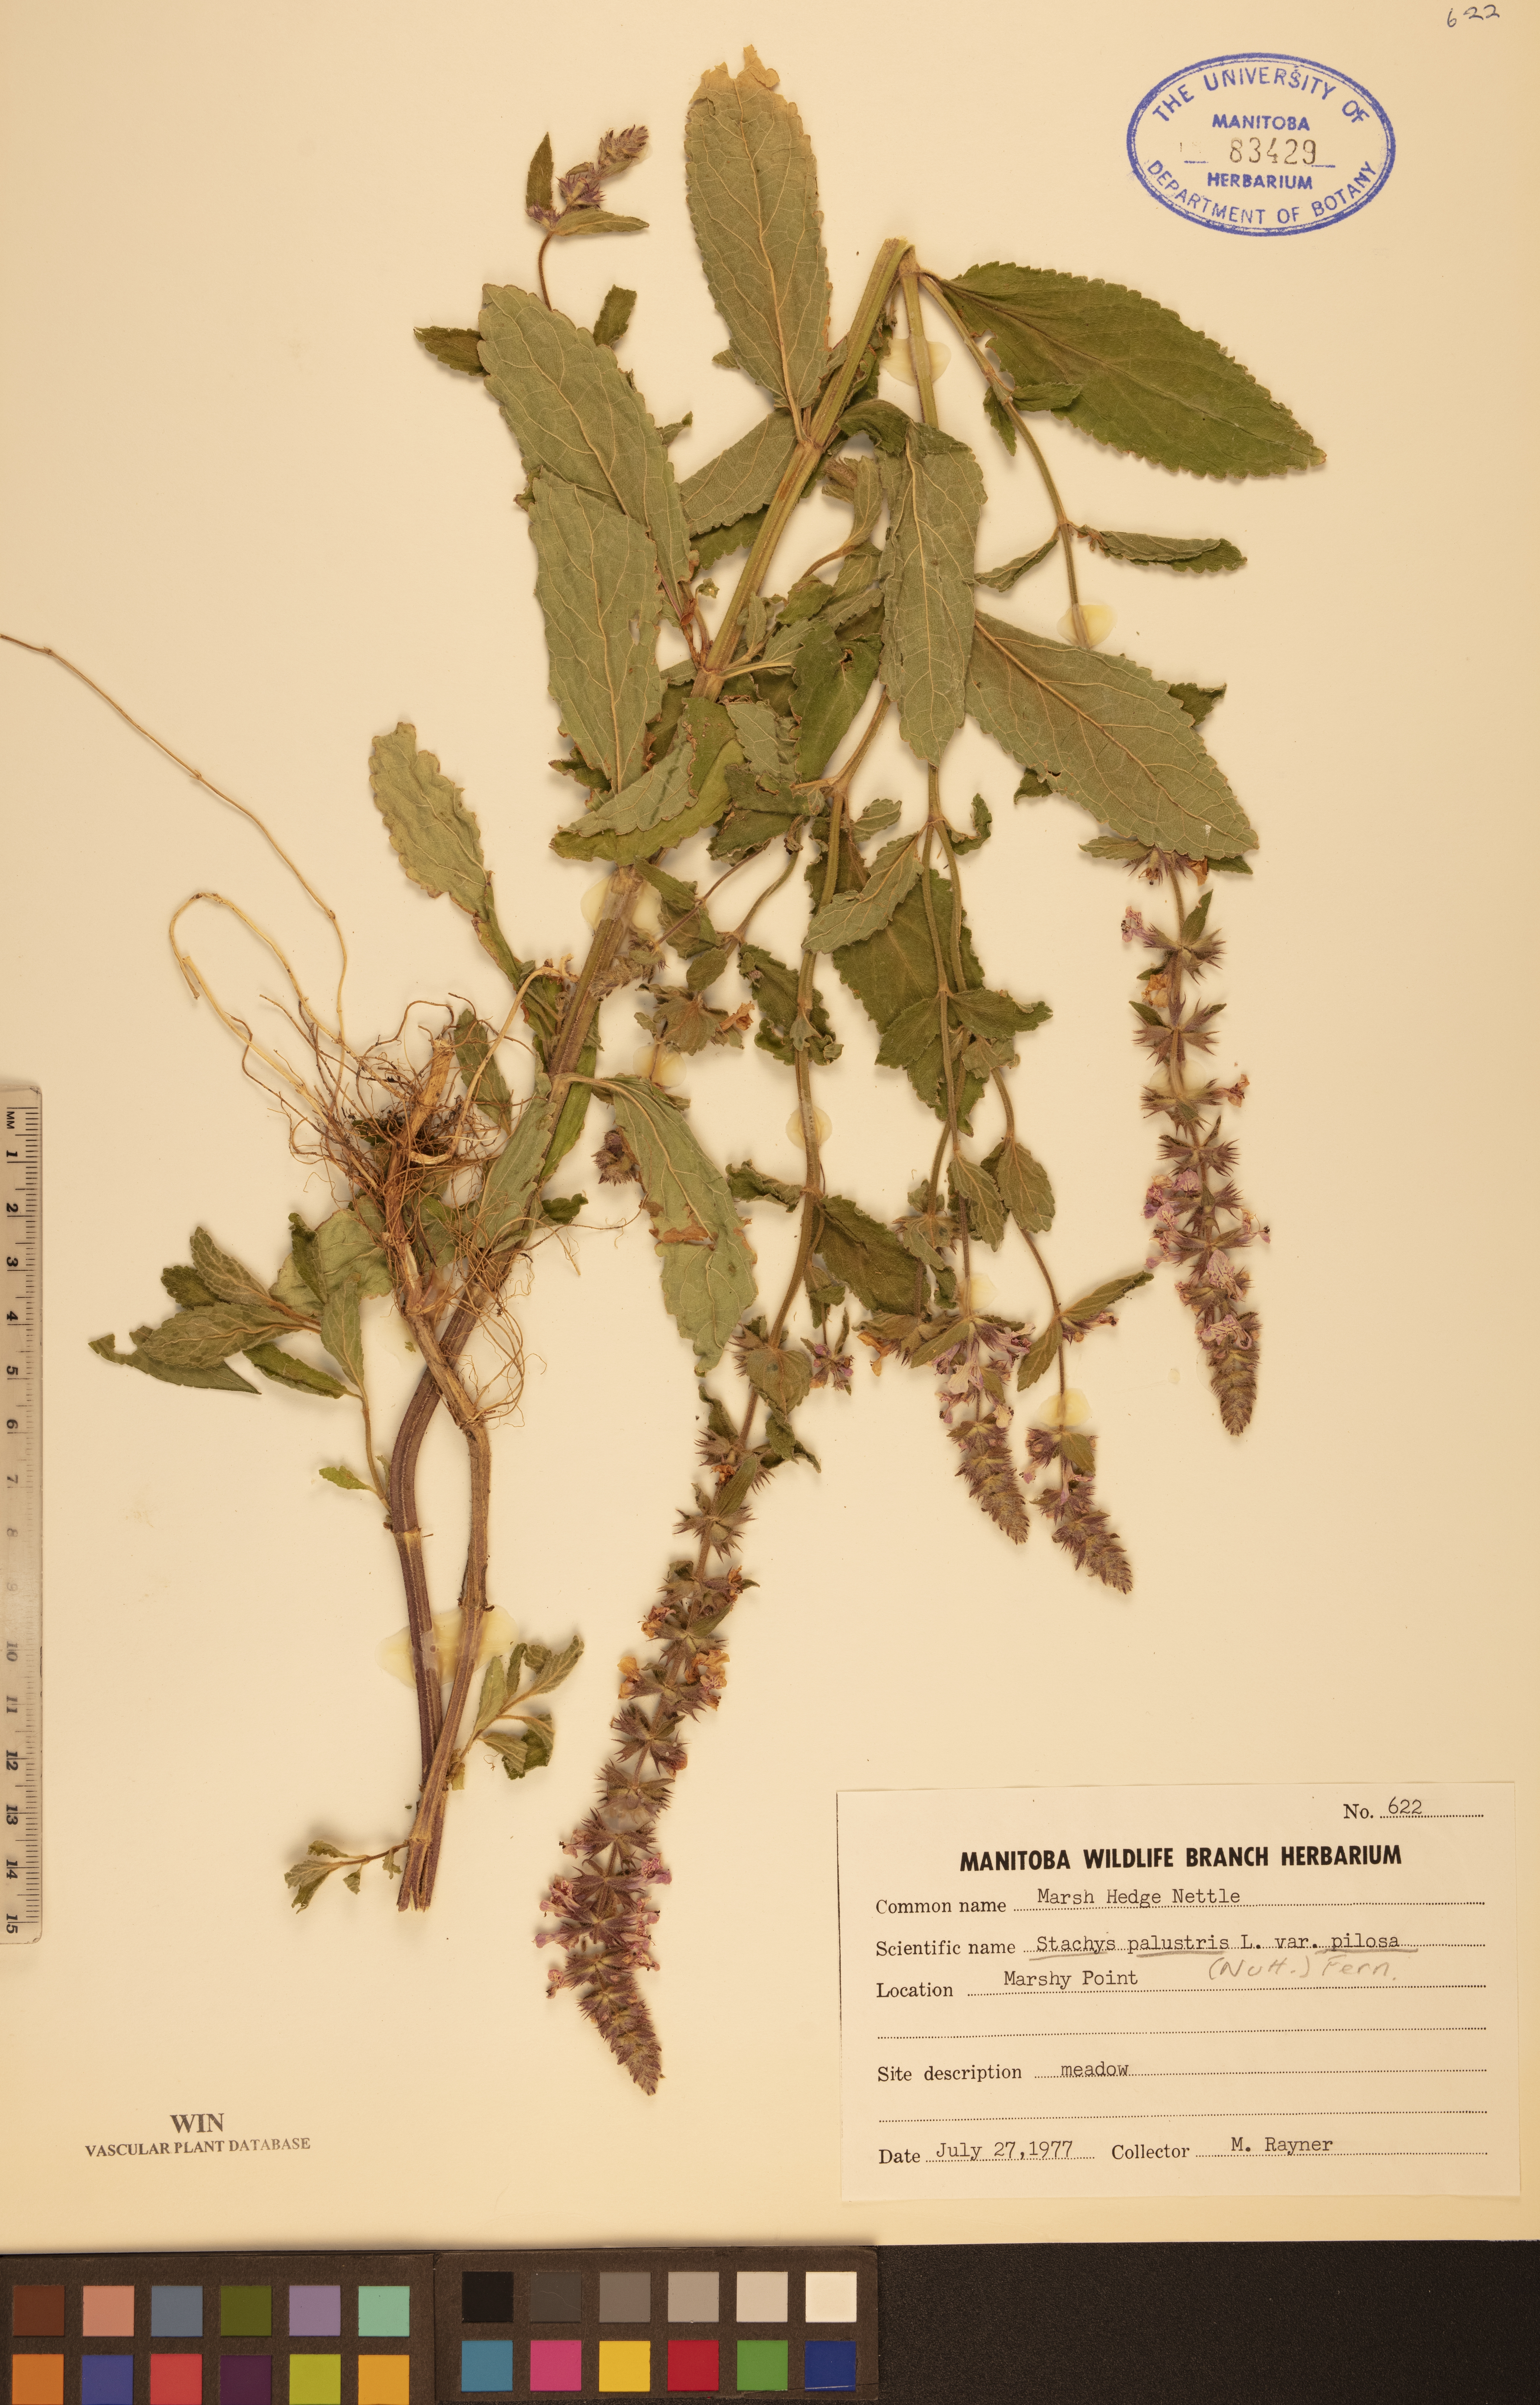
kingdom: Plantae
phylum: Tracheophyta
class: Magnoliopsida
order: Lamiales
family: Lamiaceae
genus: Stachys
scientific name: Stachys pilosa
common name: Hairy hedge-nettle
